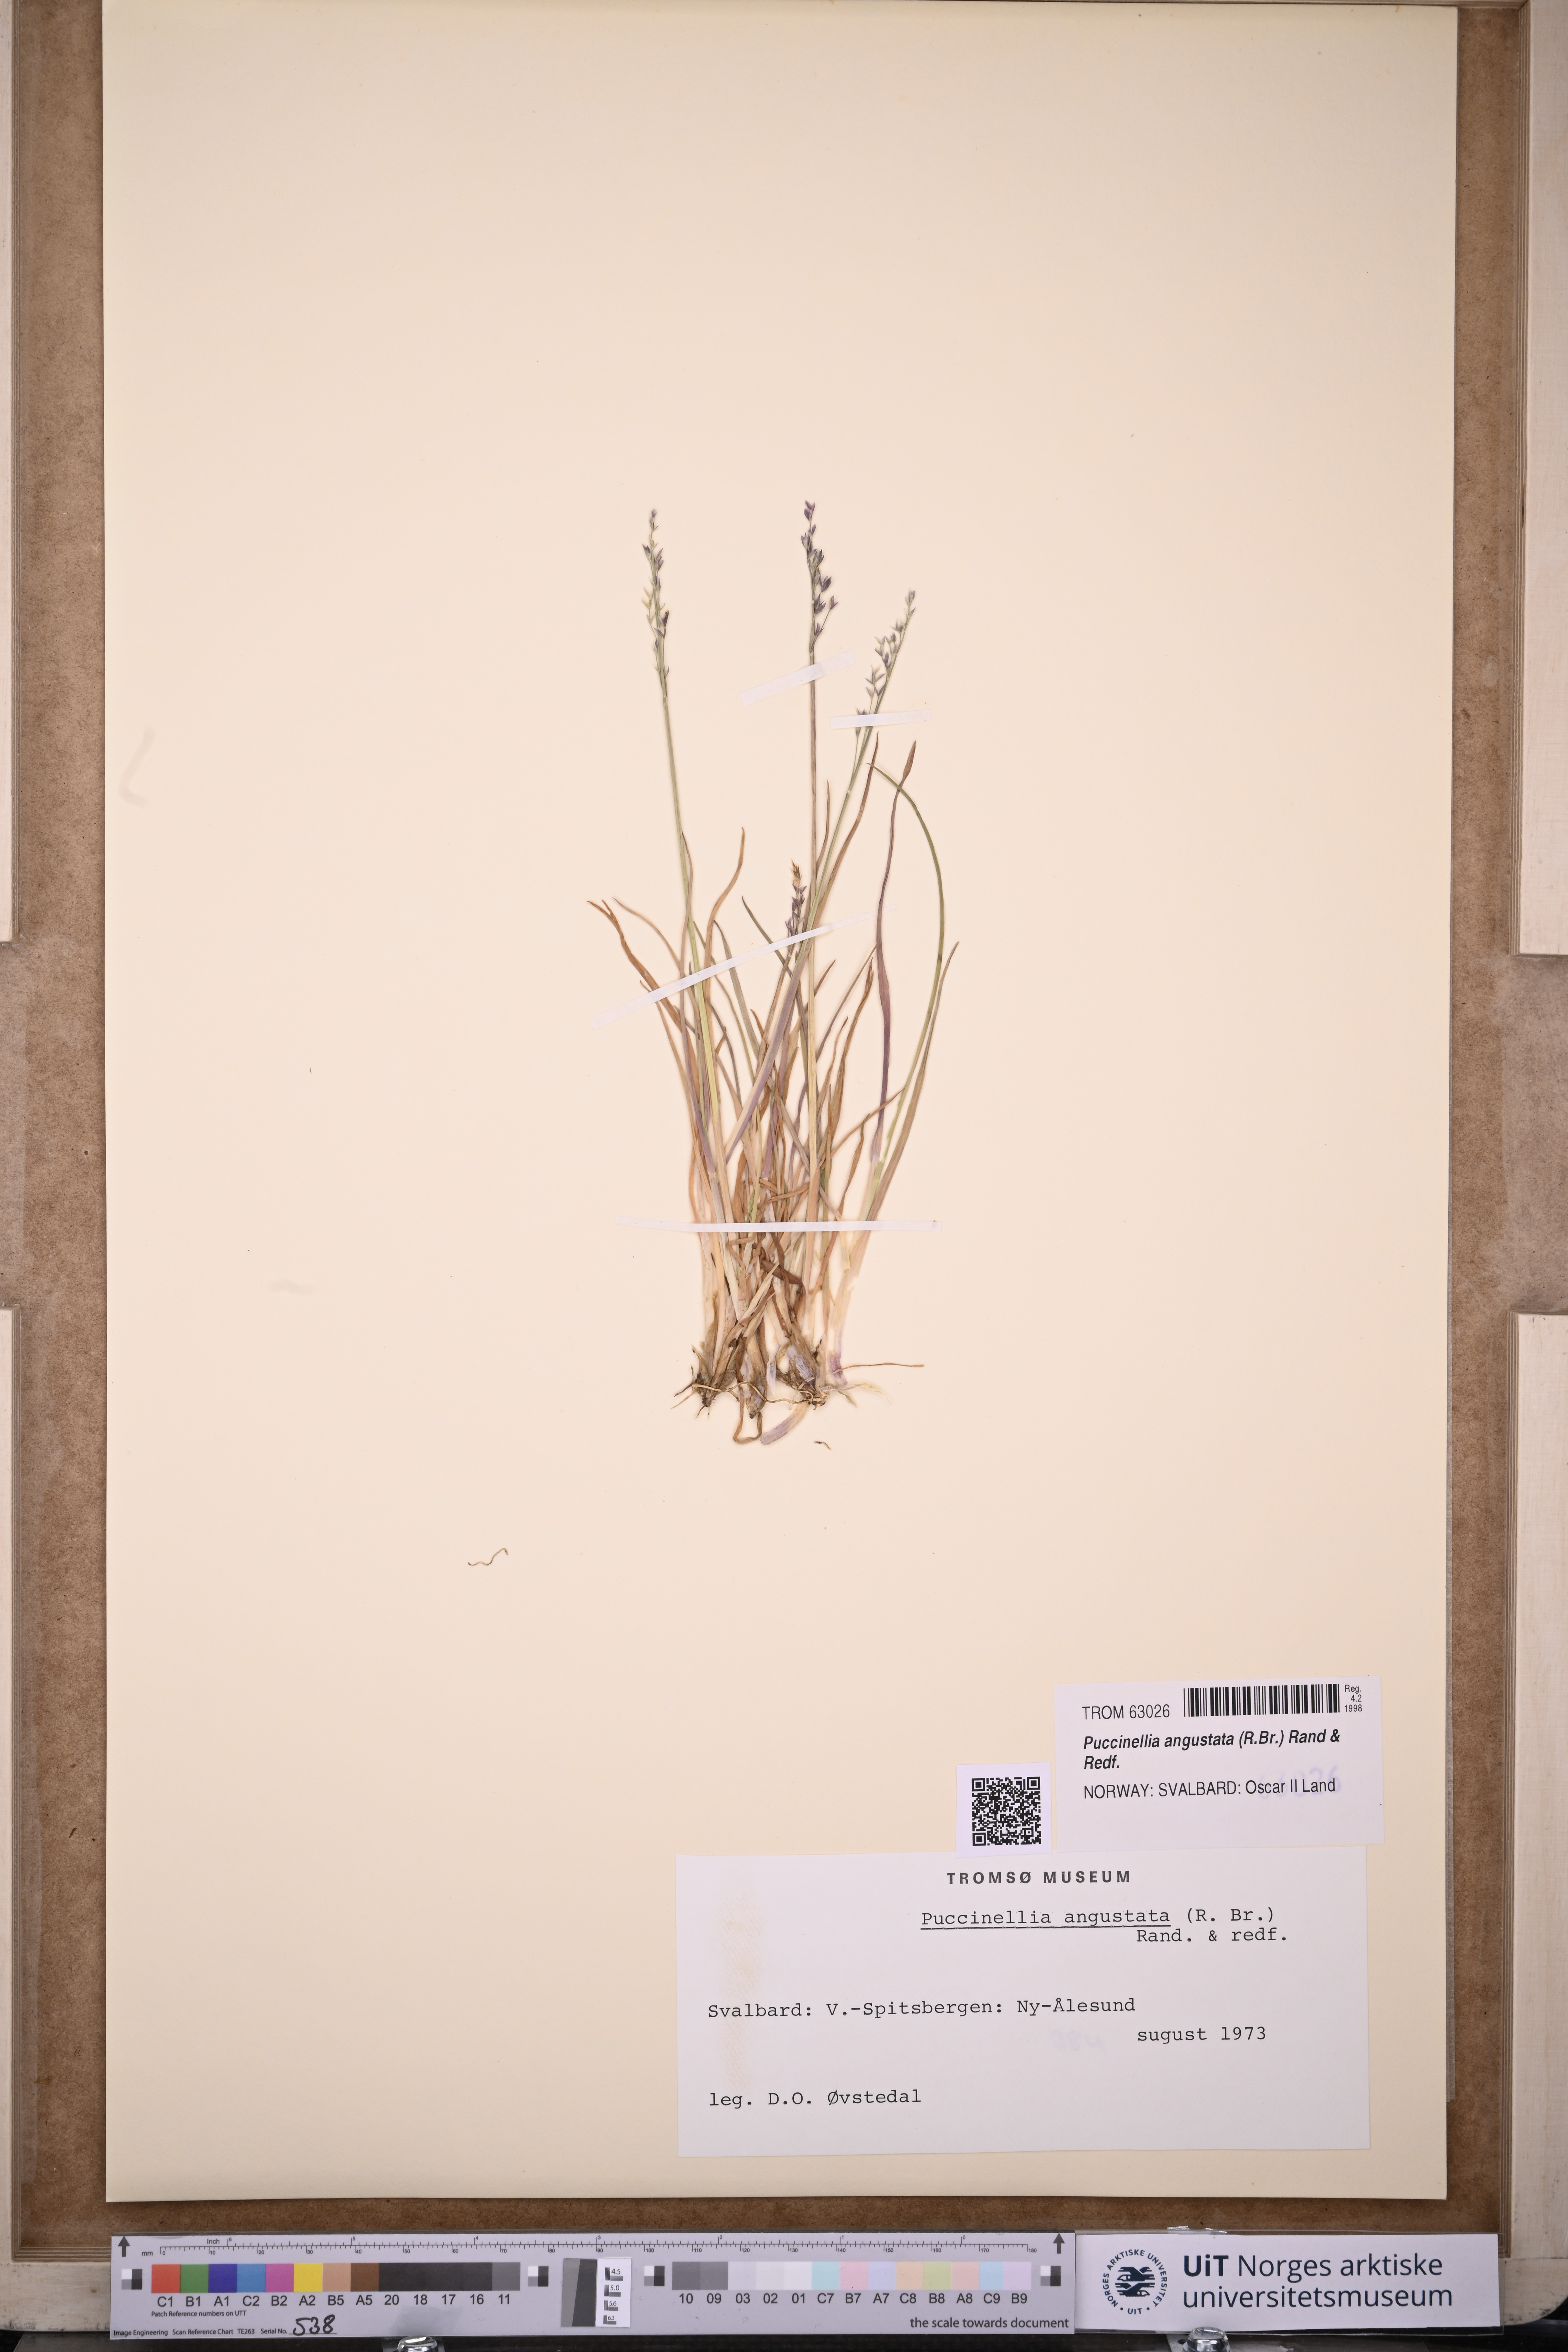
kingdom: Plantae
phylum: Tracheophyta
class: Liliopsida
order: Poales
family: Poaceae
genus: Puccinellia
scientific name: Puccinellia angustata
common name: Narrow alkaligrass
